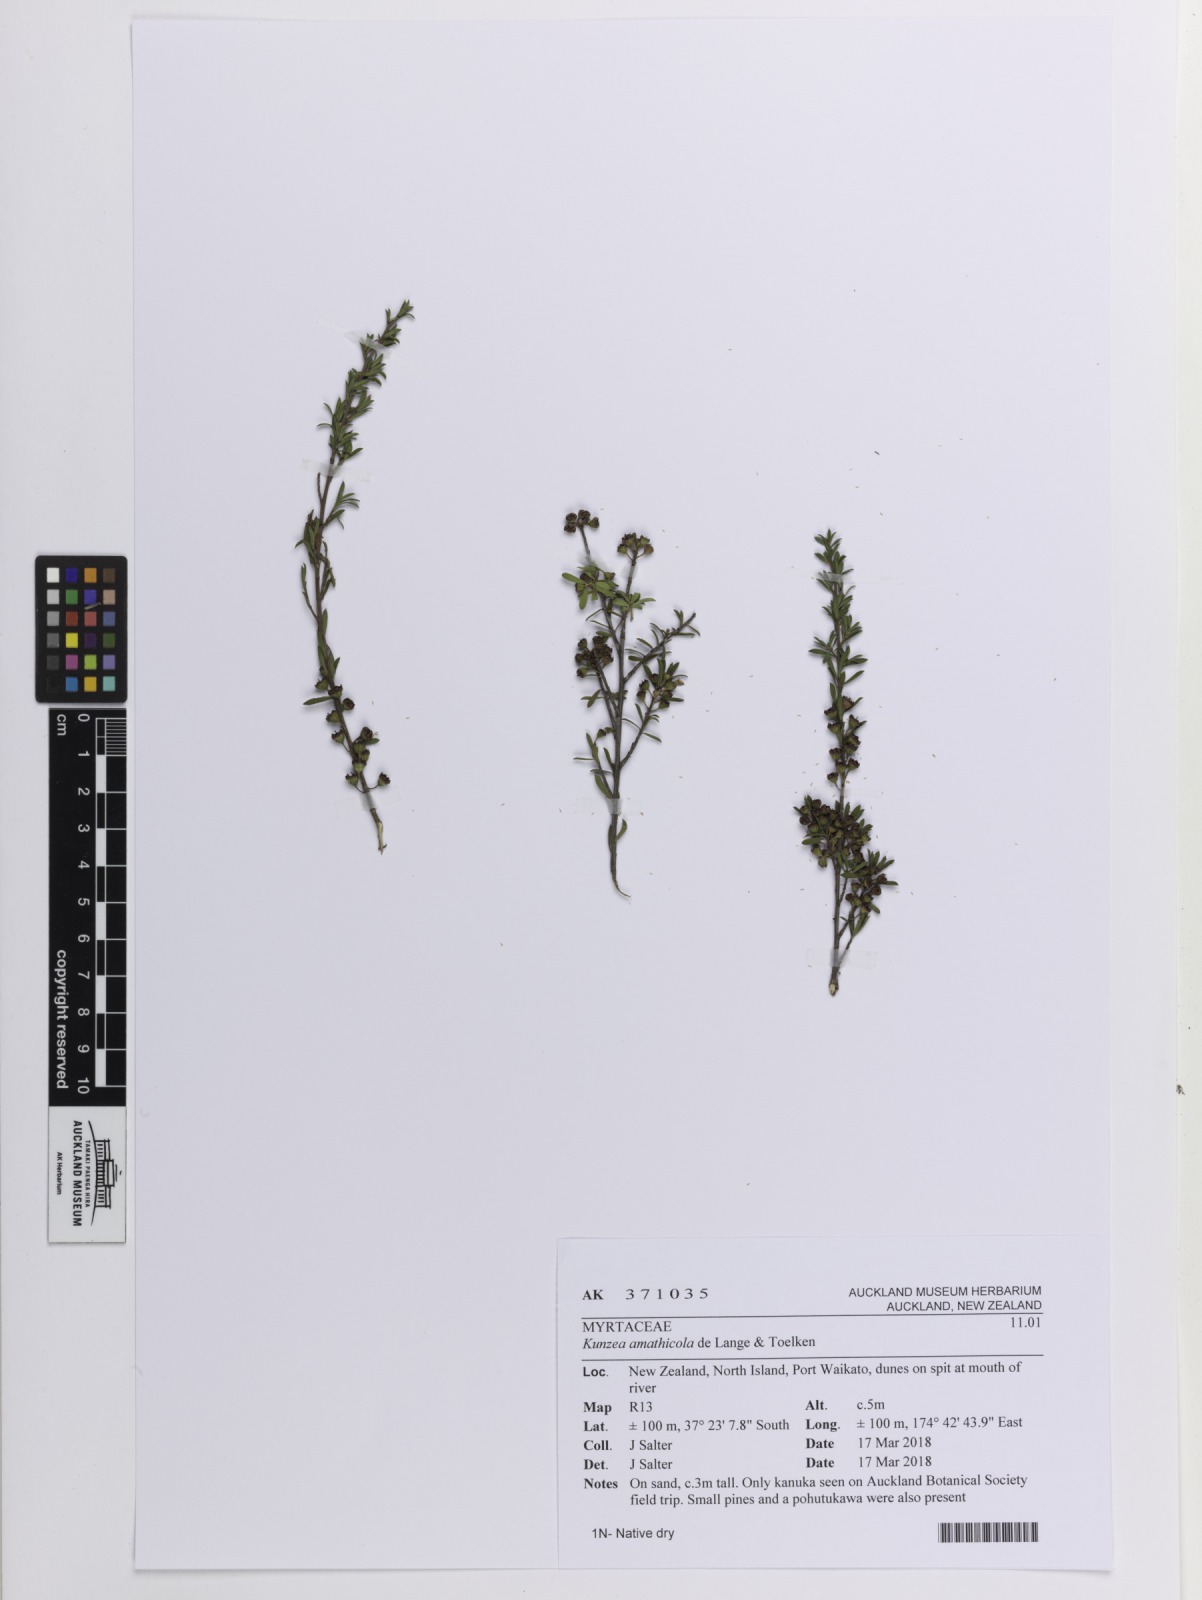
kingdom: Plantae
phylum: Tracheophyta
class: Magnoliopsida
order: Myrtales
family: Myrtaceae
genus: Kunzea
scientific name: Kunzea amathicola
